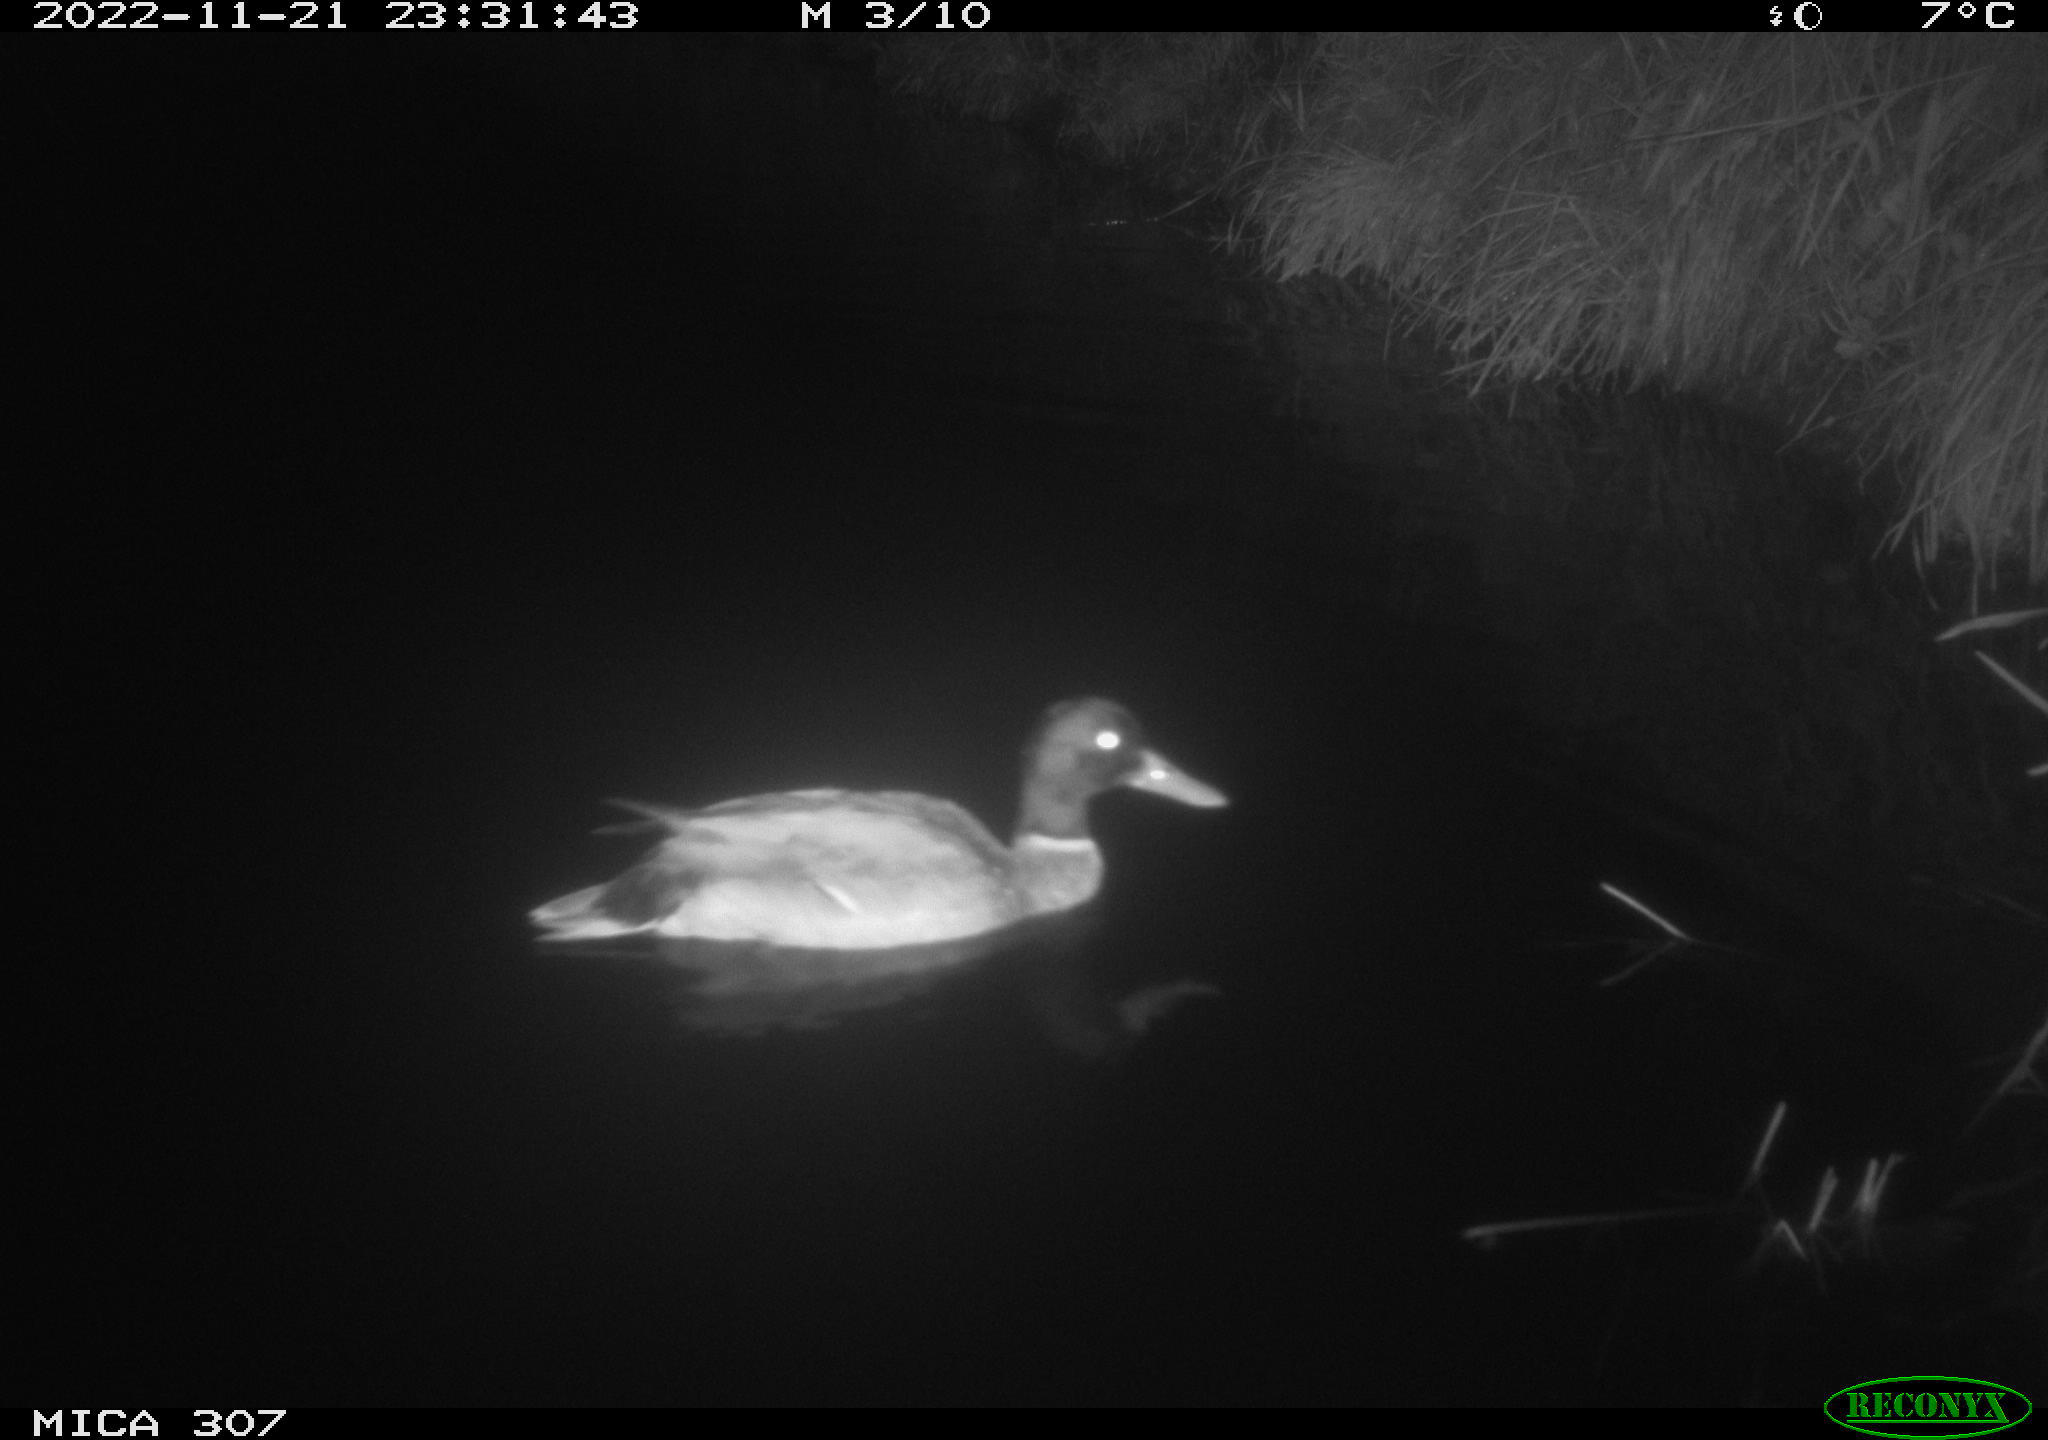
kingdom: Animalia
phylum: Chordata
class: Aves
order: Anseriformes
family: Anatidae
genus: Anas
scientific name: Anas
